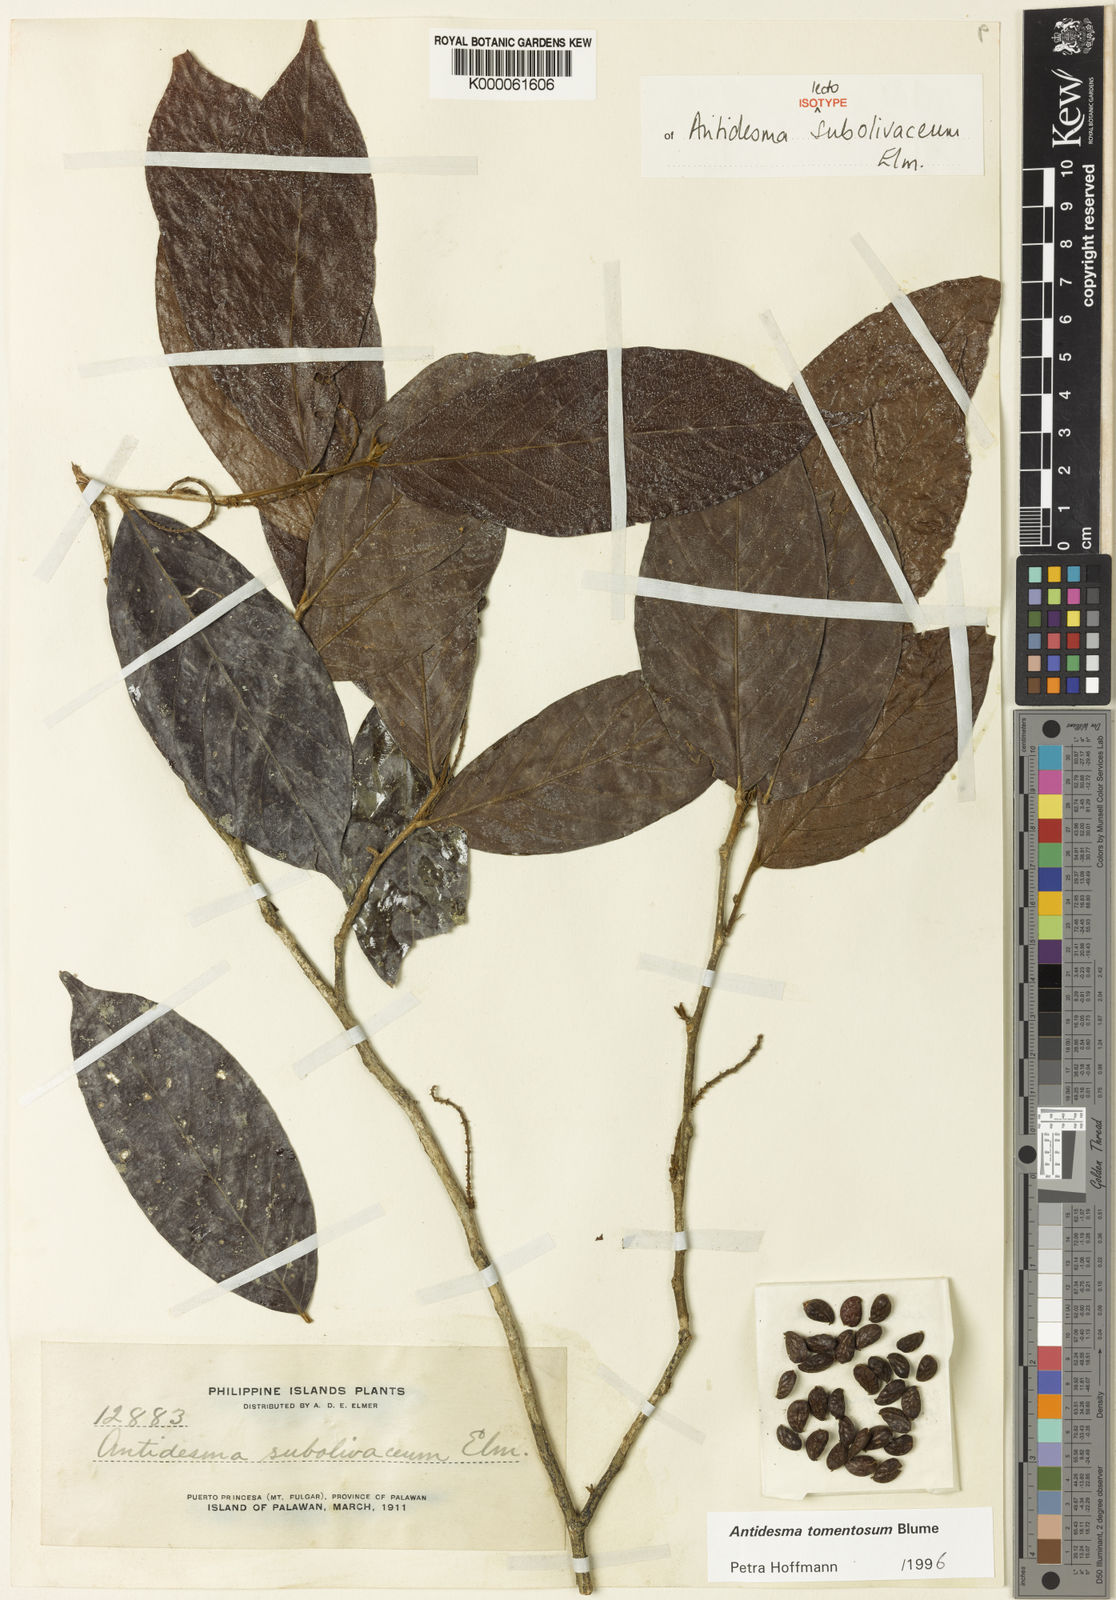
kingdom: Plantae
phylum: Tracheophyta
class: Magnoliopsida
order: Malpighiales
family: Phyllanthaceae
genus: Antidesma
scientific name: Antidesma tomentosum
